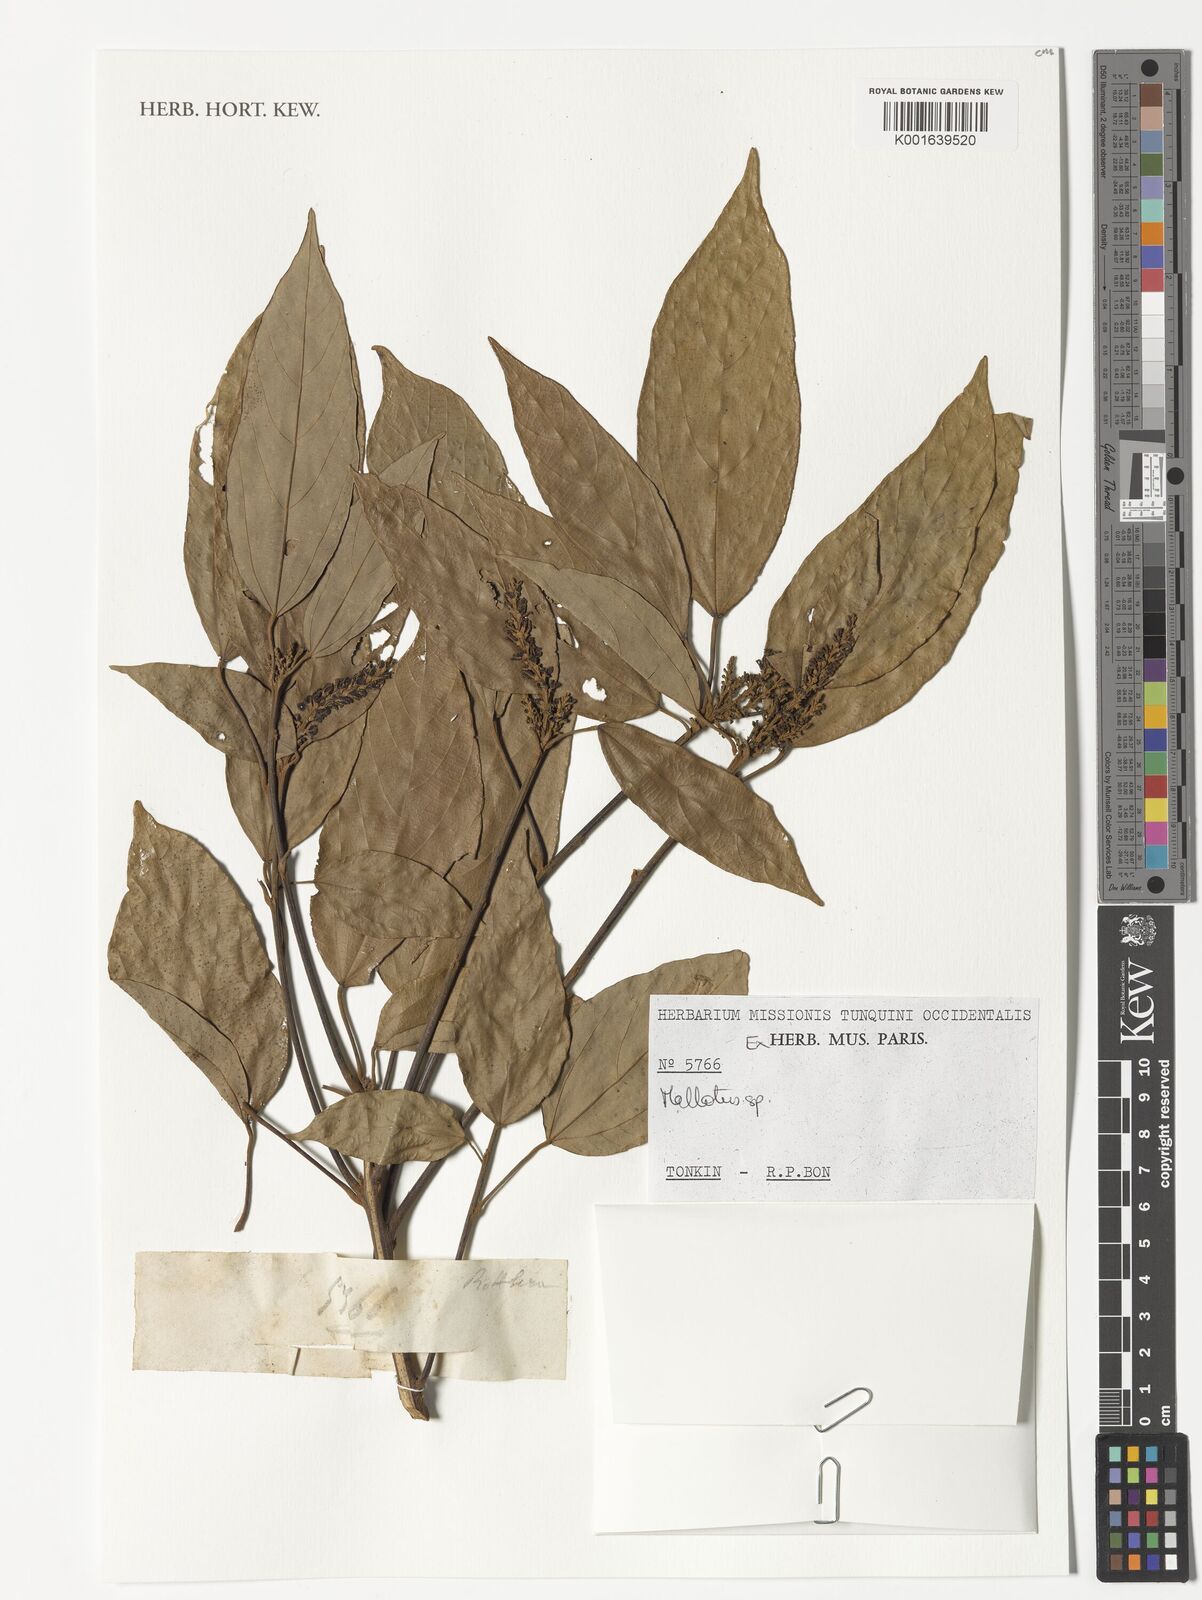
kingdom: Plantae
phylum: Tracheophyta
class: Magnoliopsida
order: Malpighiales
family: Euphorbiaceae
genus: Mallotus
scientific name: Mallotus
